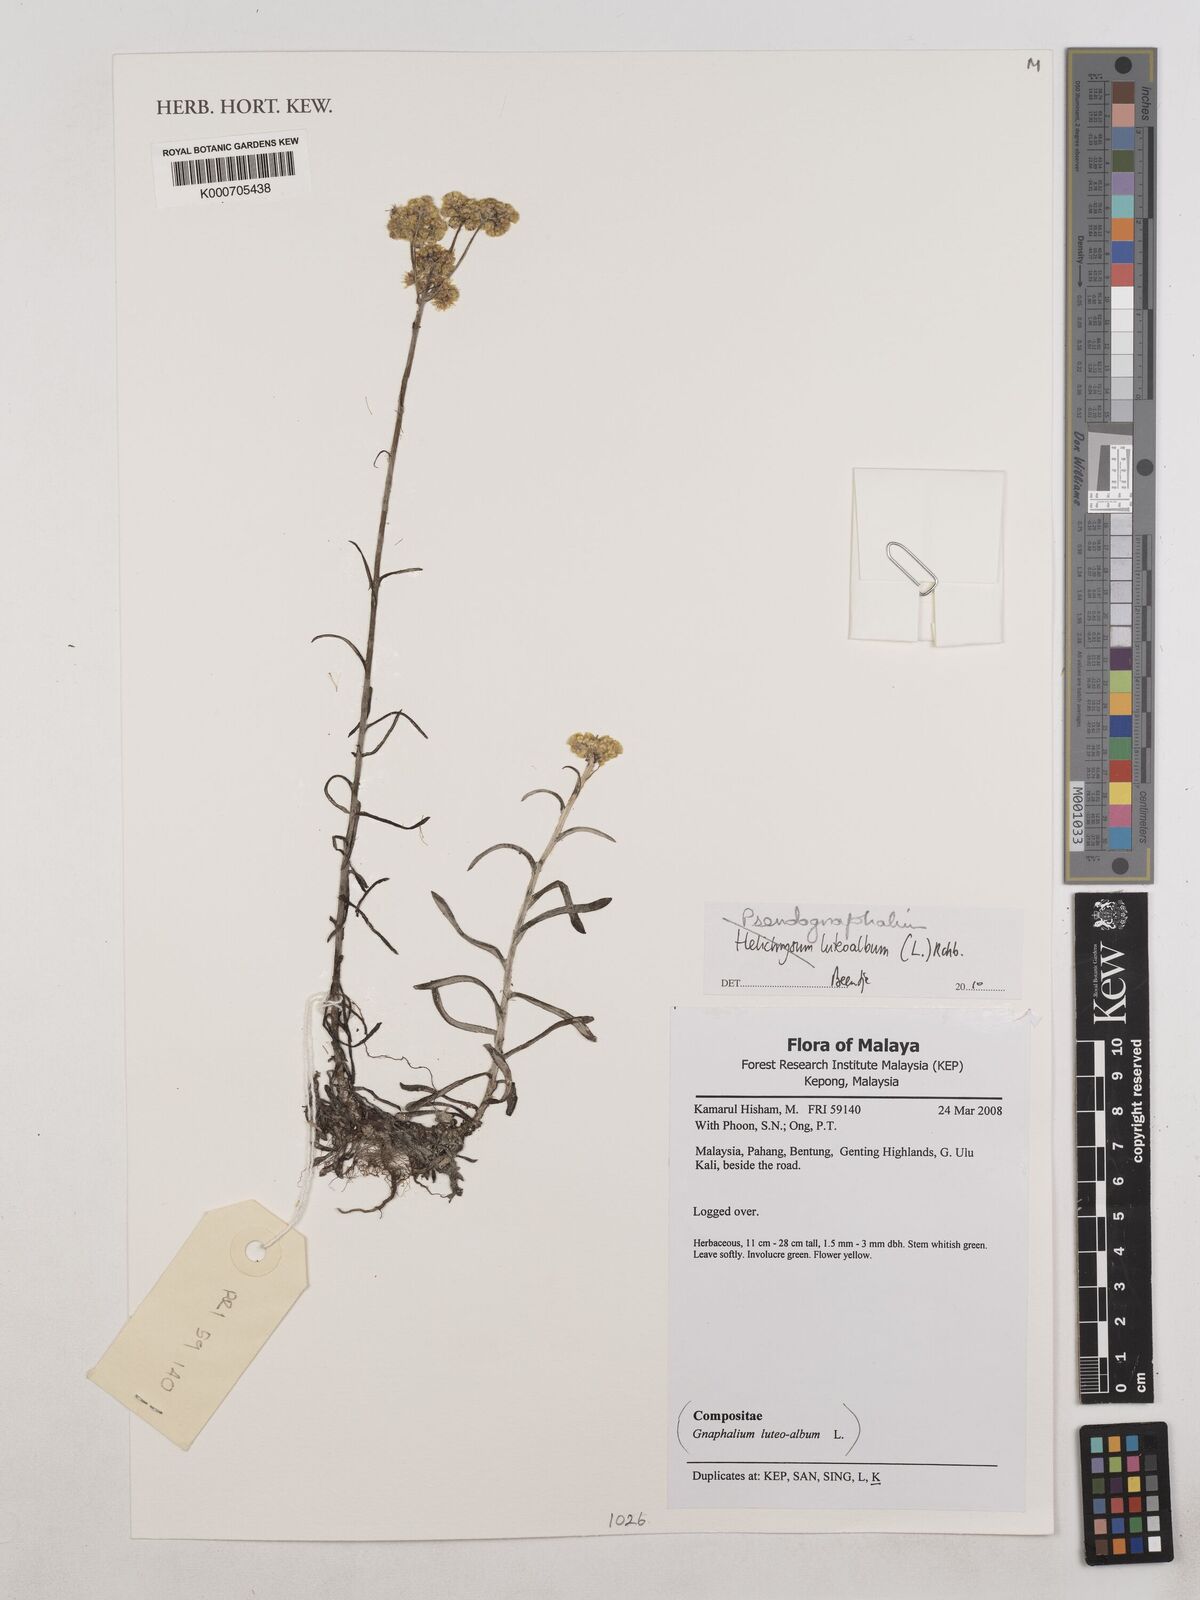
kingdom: Plantae
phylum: Tracheophyta
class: Magnoliopsida
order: Asterales
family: Asteraceae
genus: Helichrysum
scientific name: Helichrysum
